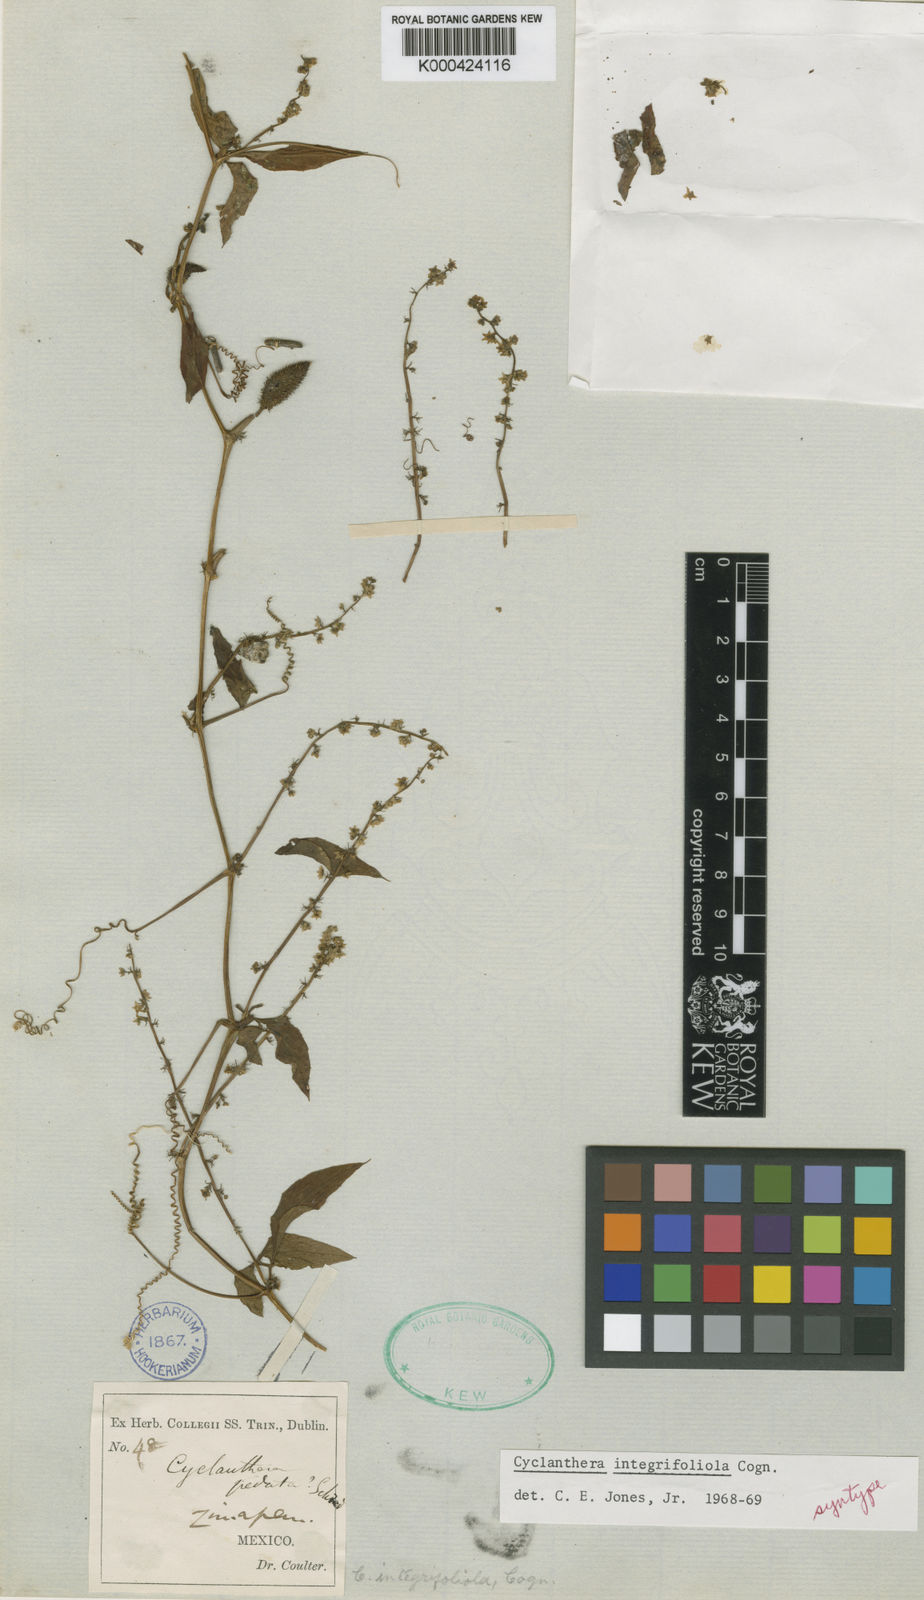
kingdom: Plantae
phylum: Tracheophyta
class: Magnoliopsida
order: Cucurbitales
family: Cucurbitaceae
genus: Cyclanthera
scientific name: Cyclanthera integrifoliola
